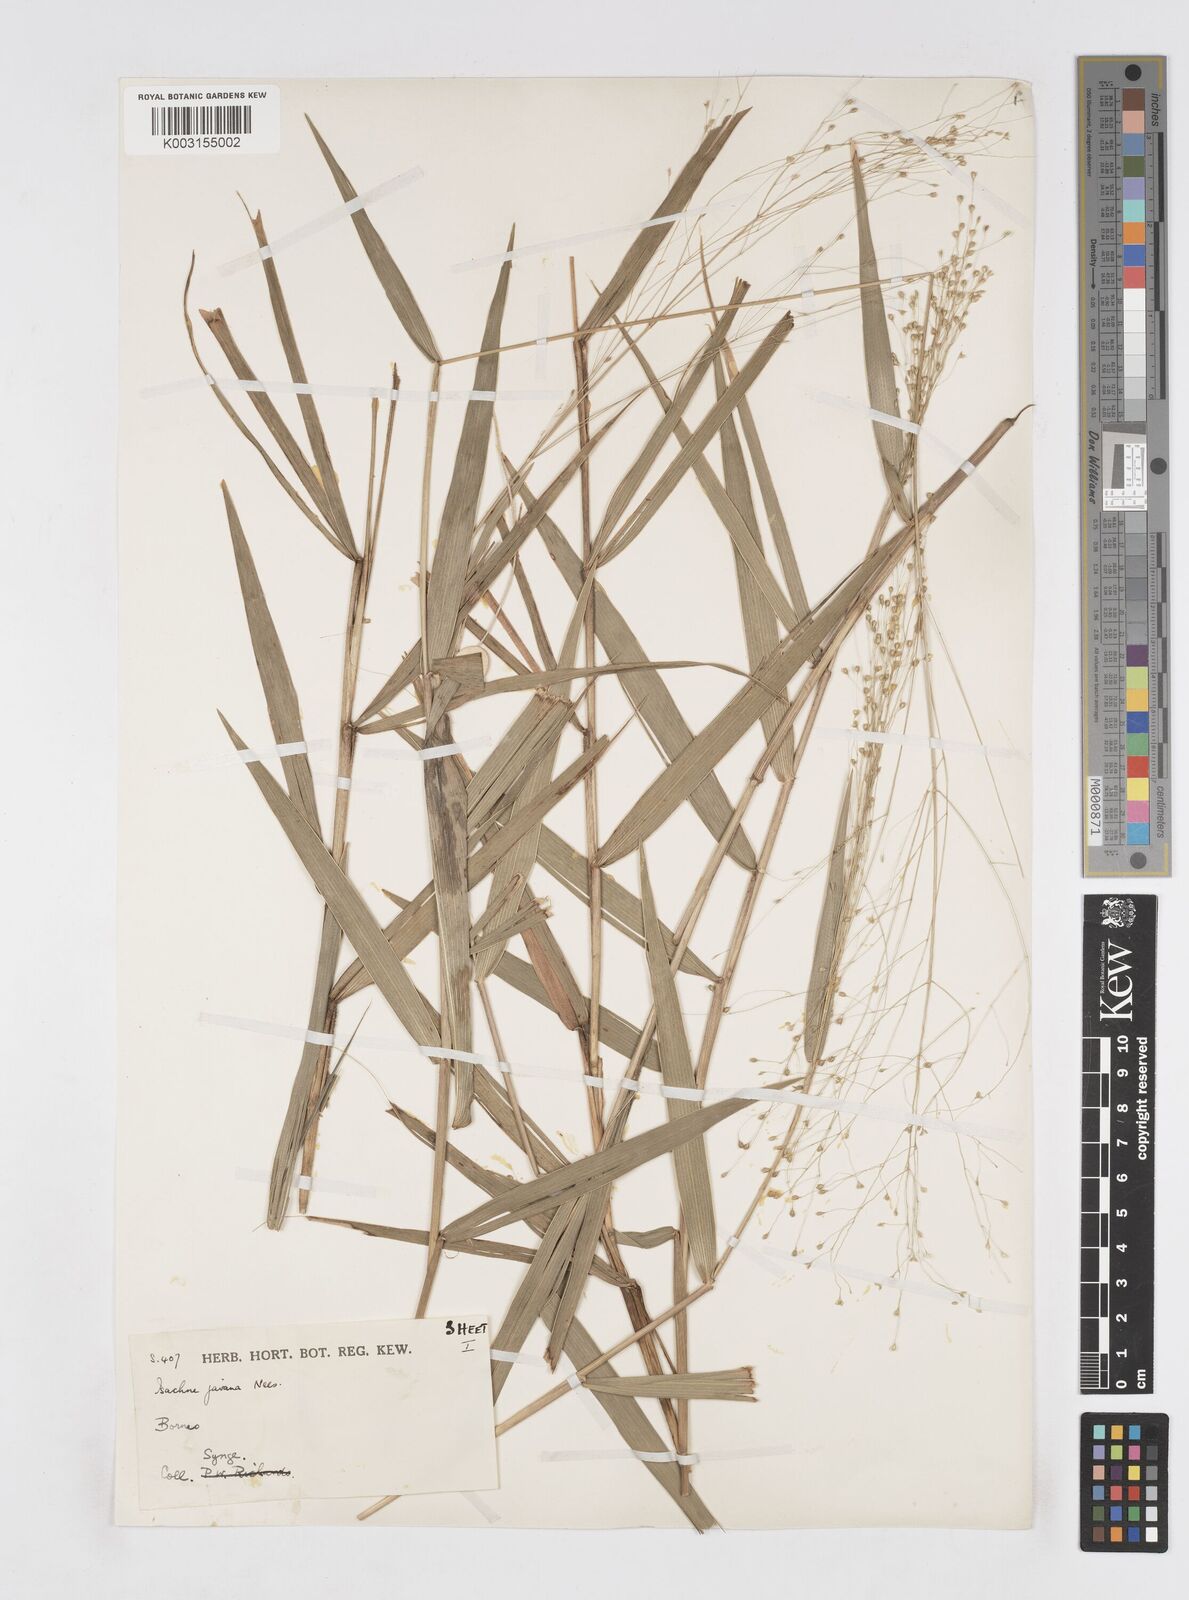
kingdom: Plantae
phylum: Tracheophyta
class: Liliopsida
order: Poales
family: Poaceae
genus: Isachne
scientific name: Isachne kinabaluensis
